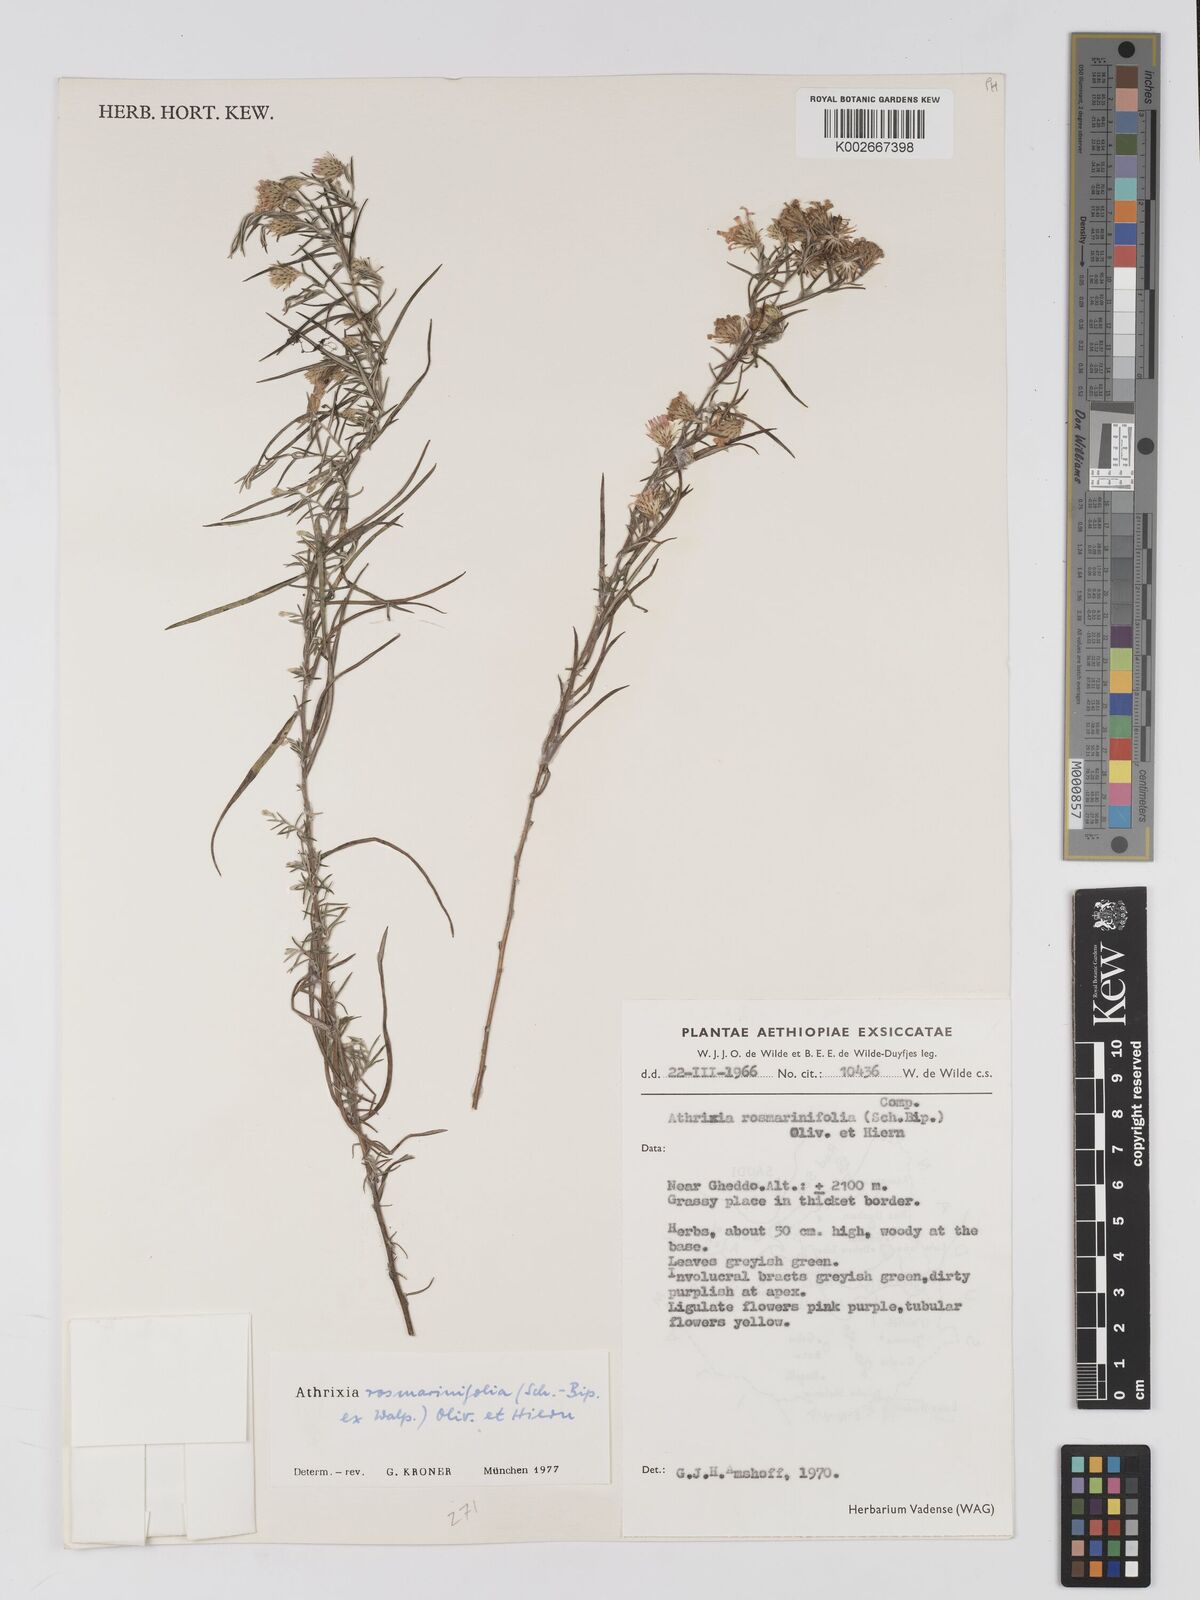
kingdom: Plantae
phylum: Tracheophyta
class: Magnoliopsida
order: Asterales
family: Asteraceae
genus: Athrixia
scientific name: Athrixia rosmarinifolia
